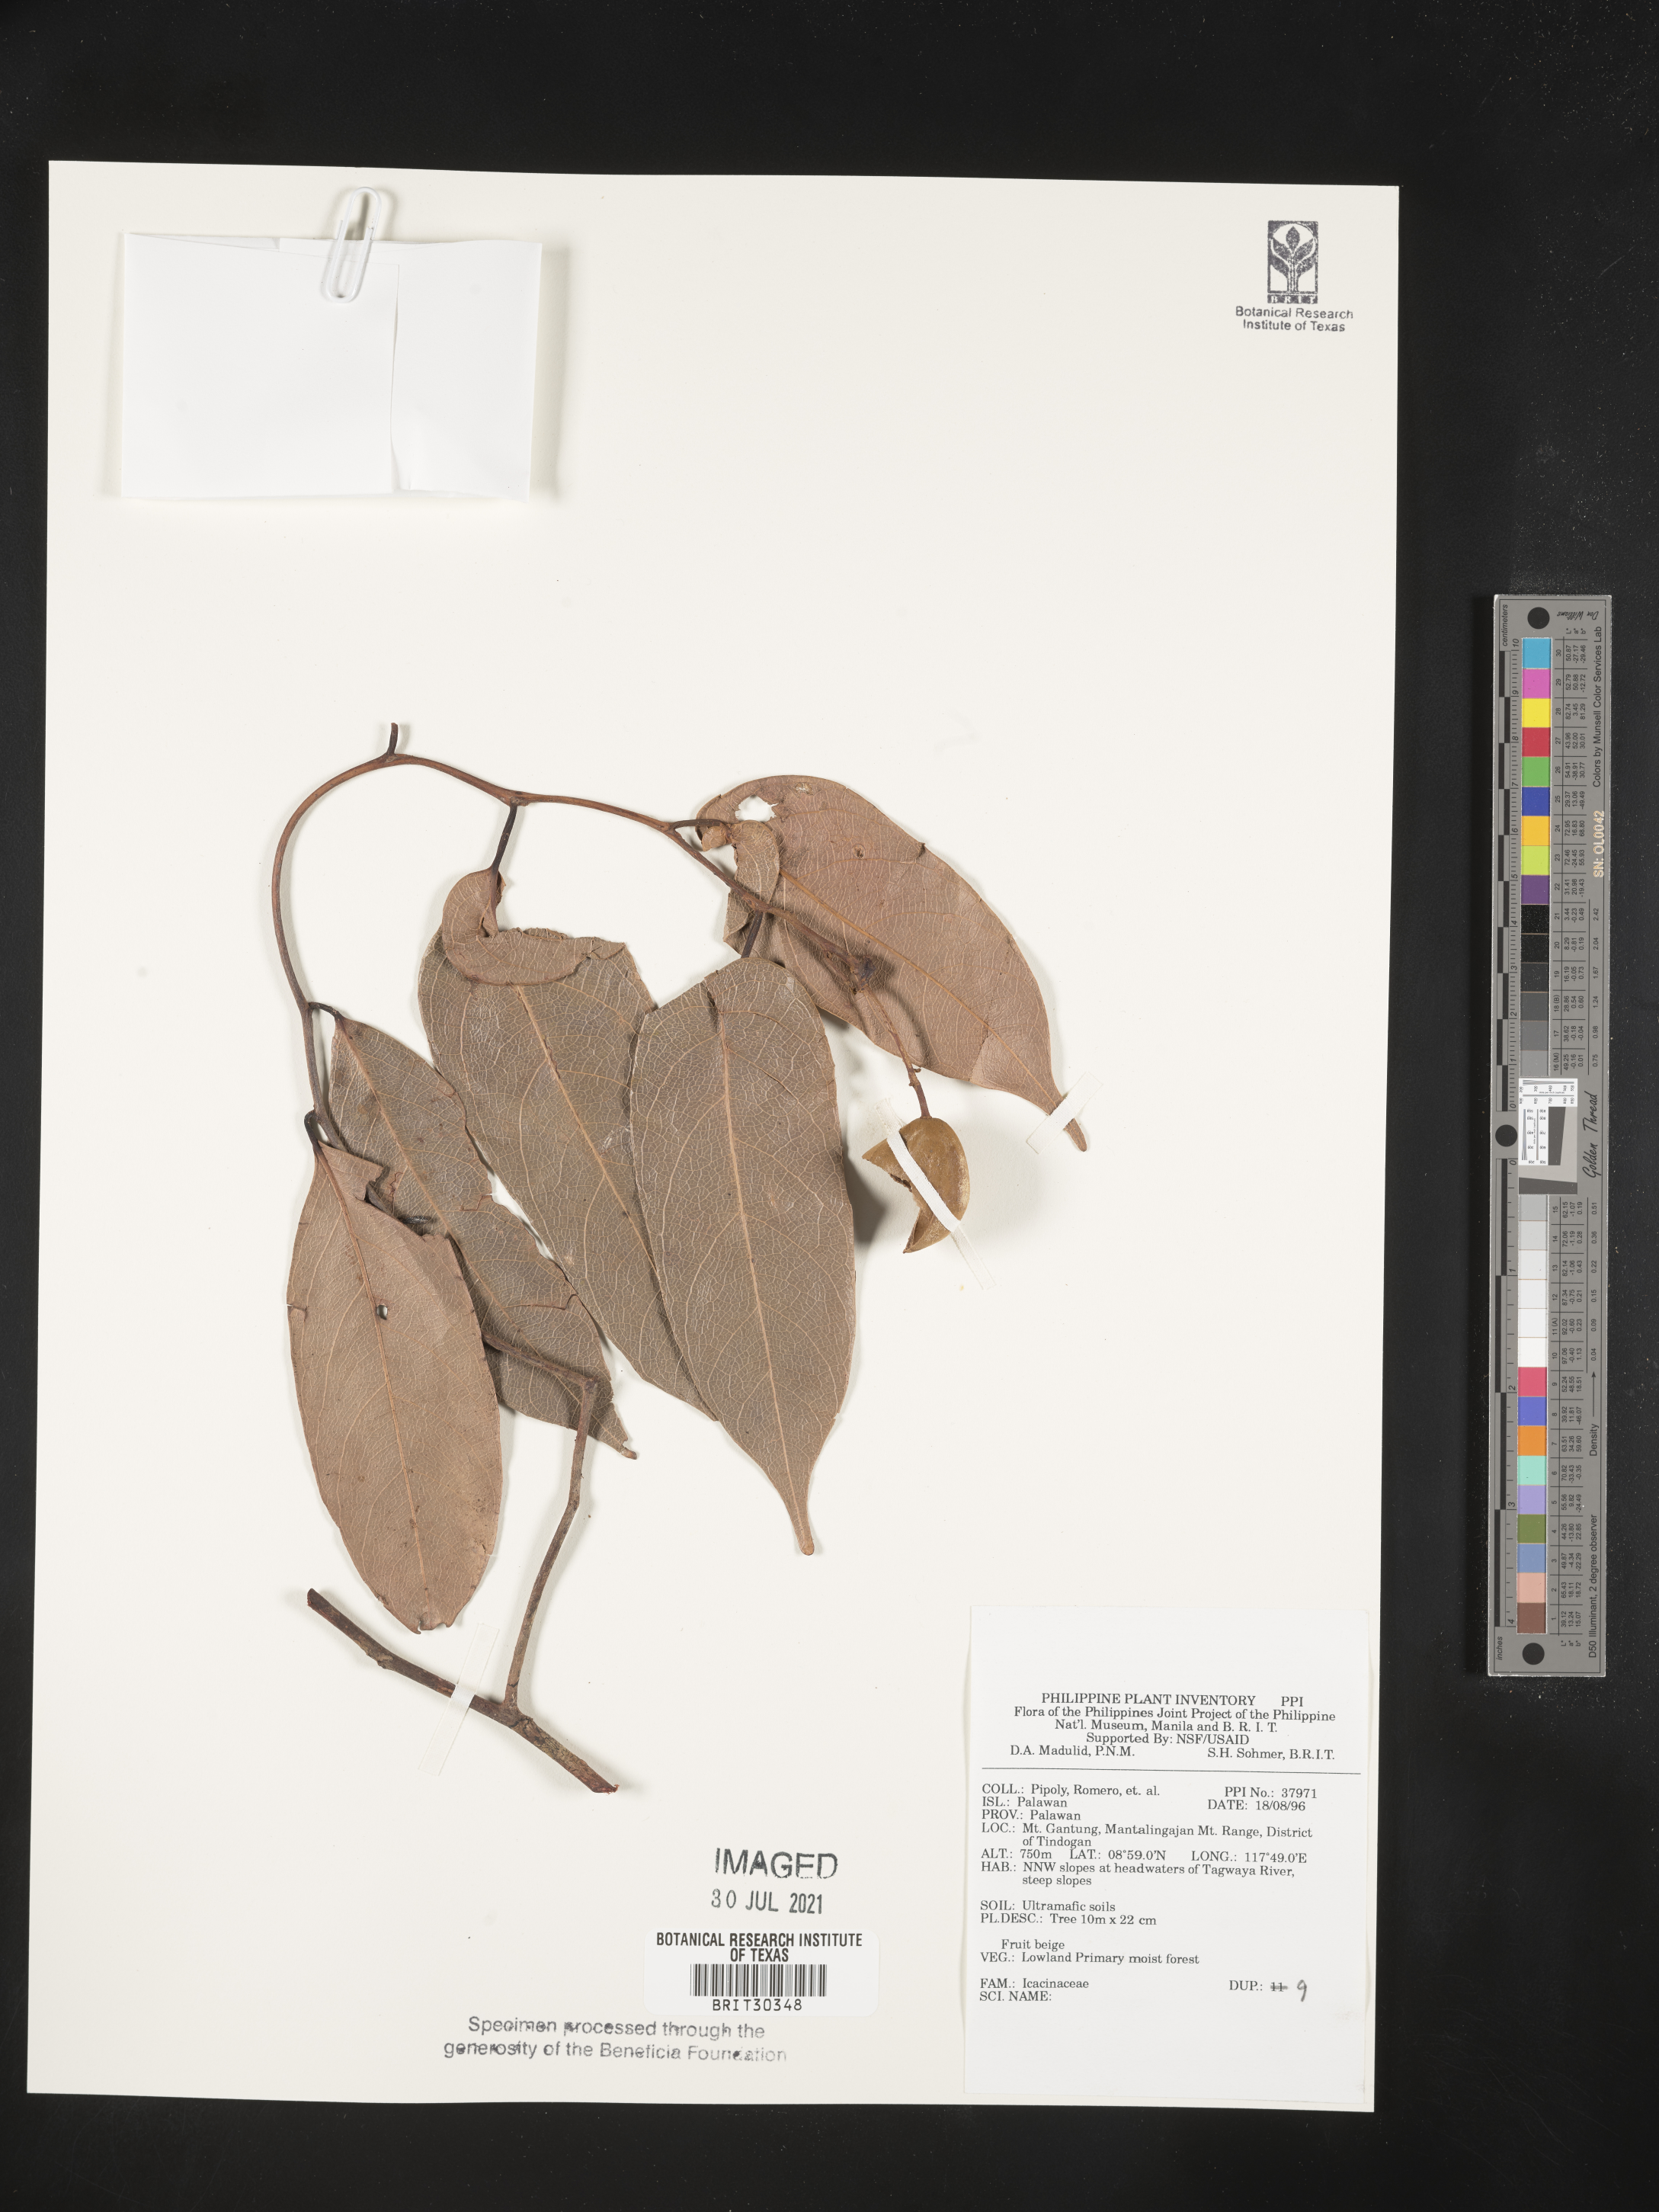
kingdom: Plantae
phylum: Tracheophyta
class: Magnoliopsida
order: Icacinales
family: Icacinaceae
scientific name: Icacinaceae
